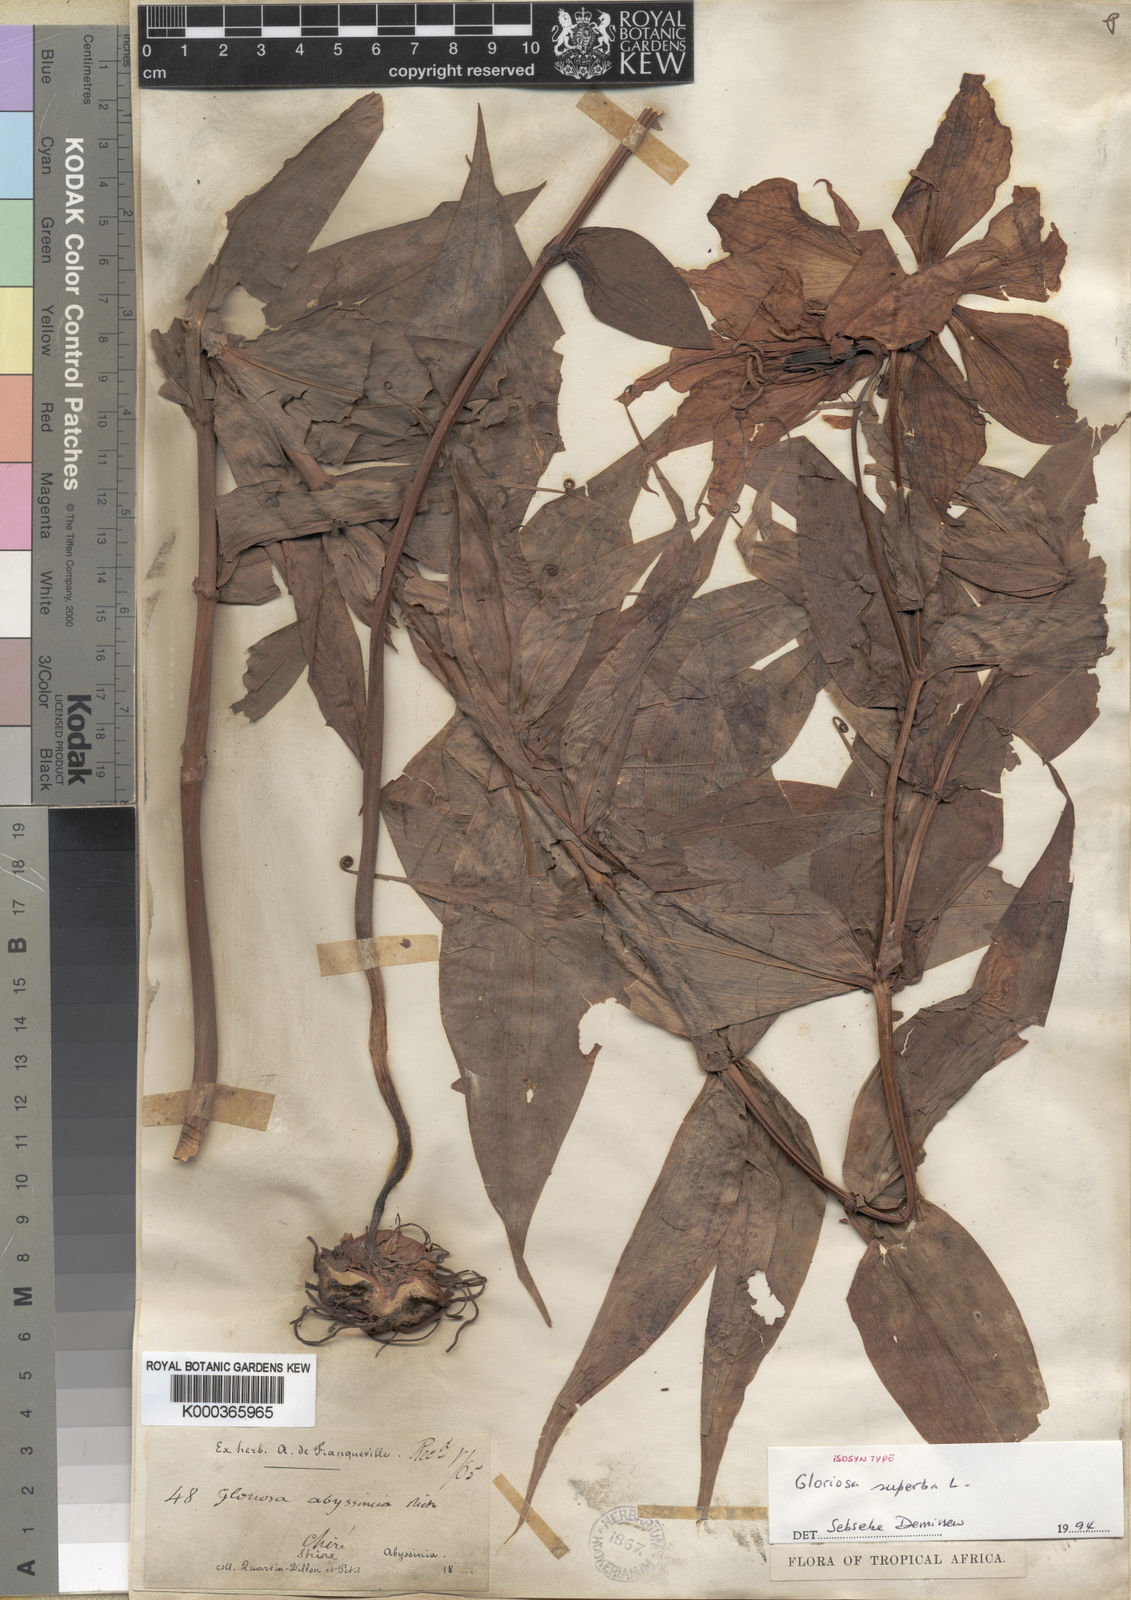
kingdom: Plantae
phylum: Tracheophyta
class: Liliopsida
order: Liliales
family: Colchicaceae
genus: Gloriosa
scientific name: Gloriosa superba
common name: Flame lily
